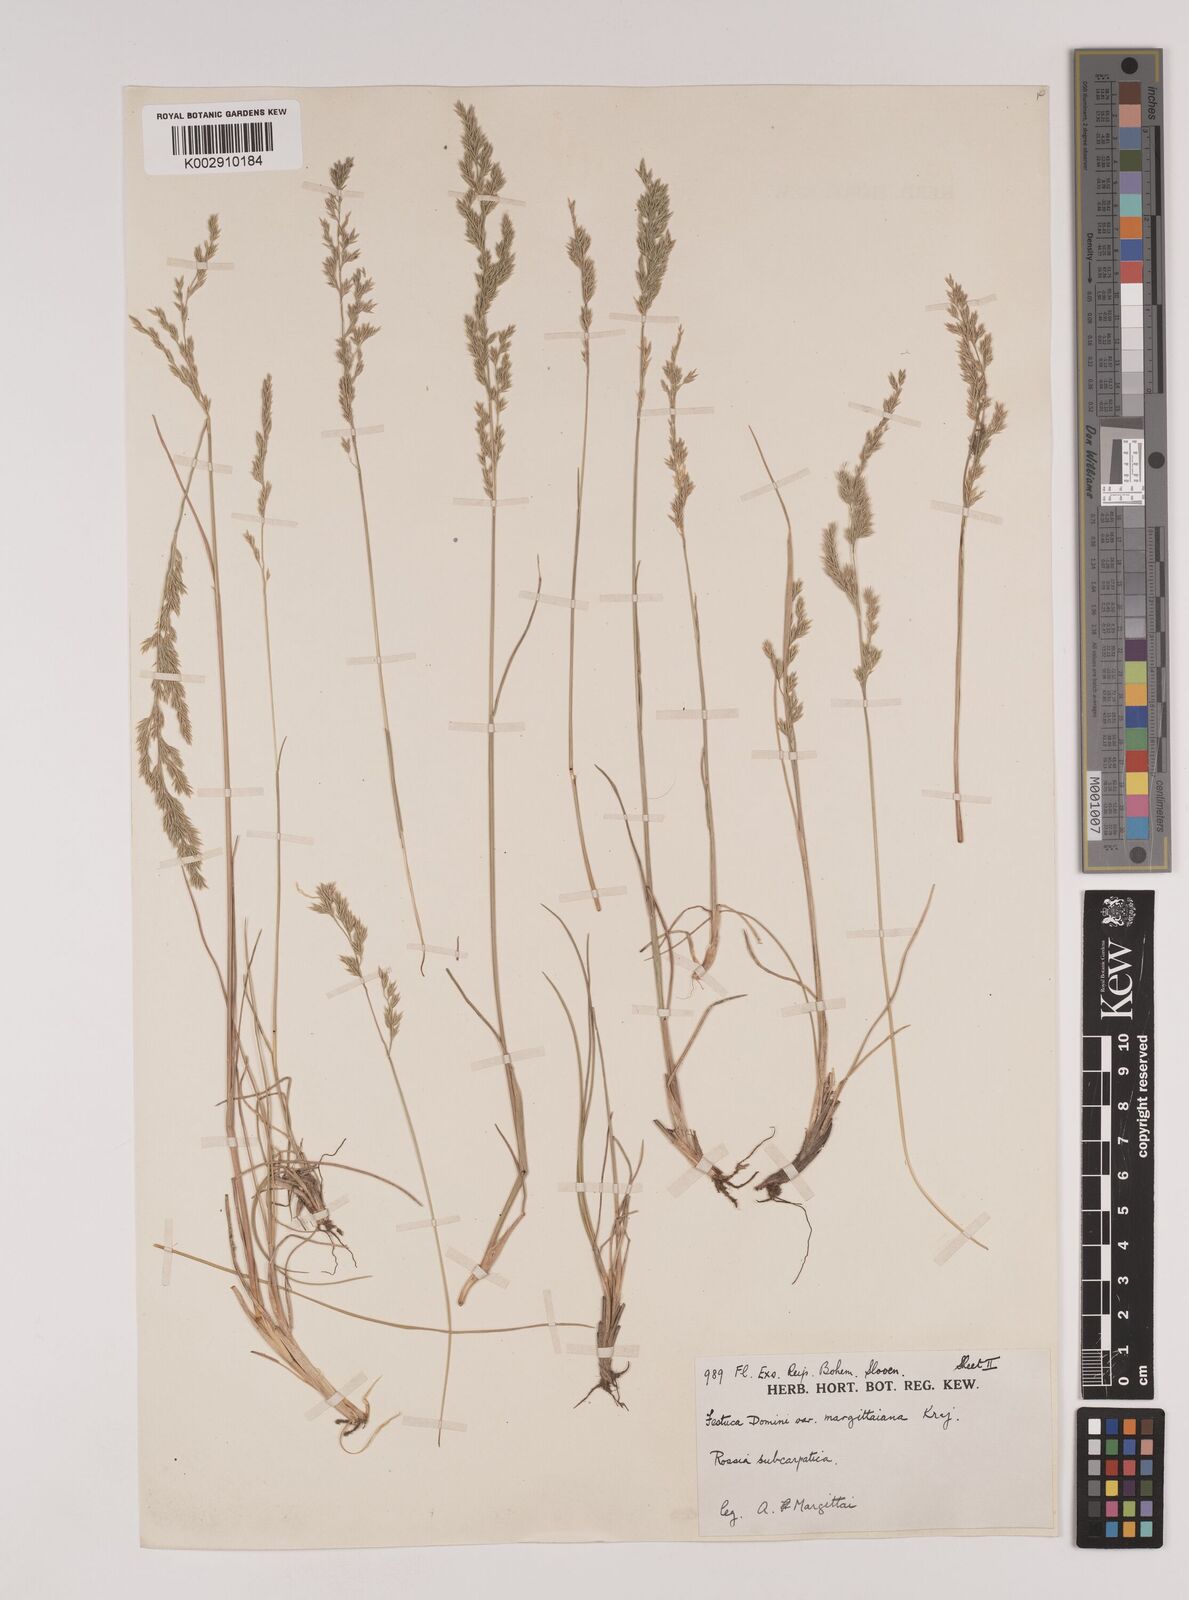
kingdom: Plantae
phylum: Tracheophyta
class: Liliopsida
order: Poales
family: Poaceae
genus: Festuca
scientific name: Festuca versicolor
